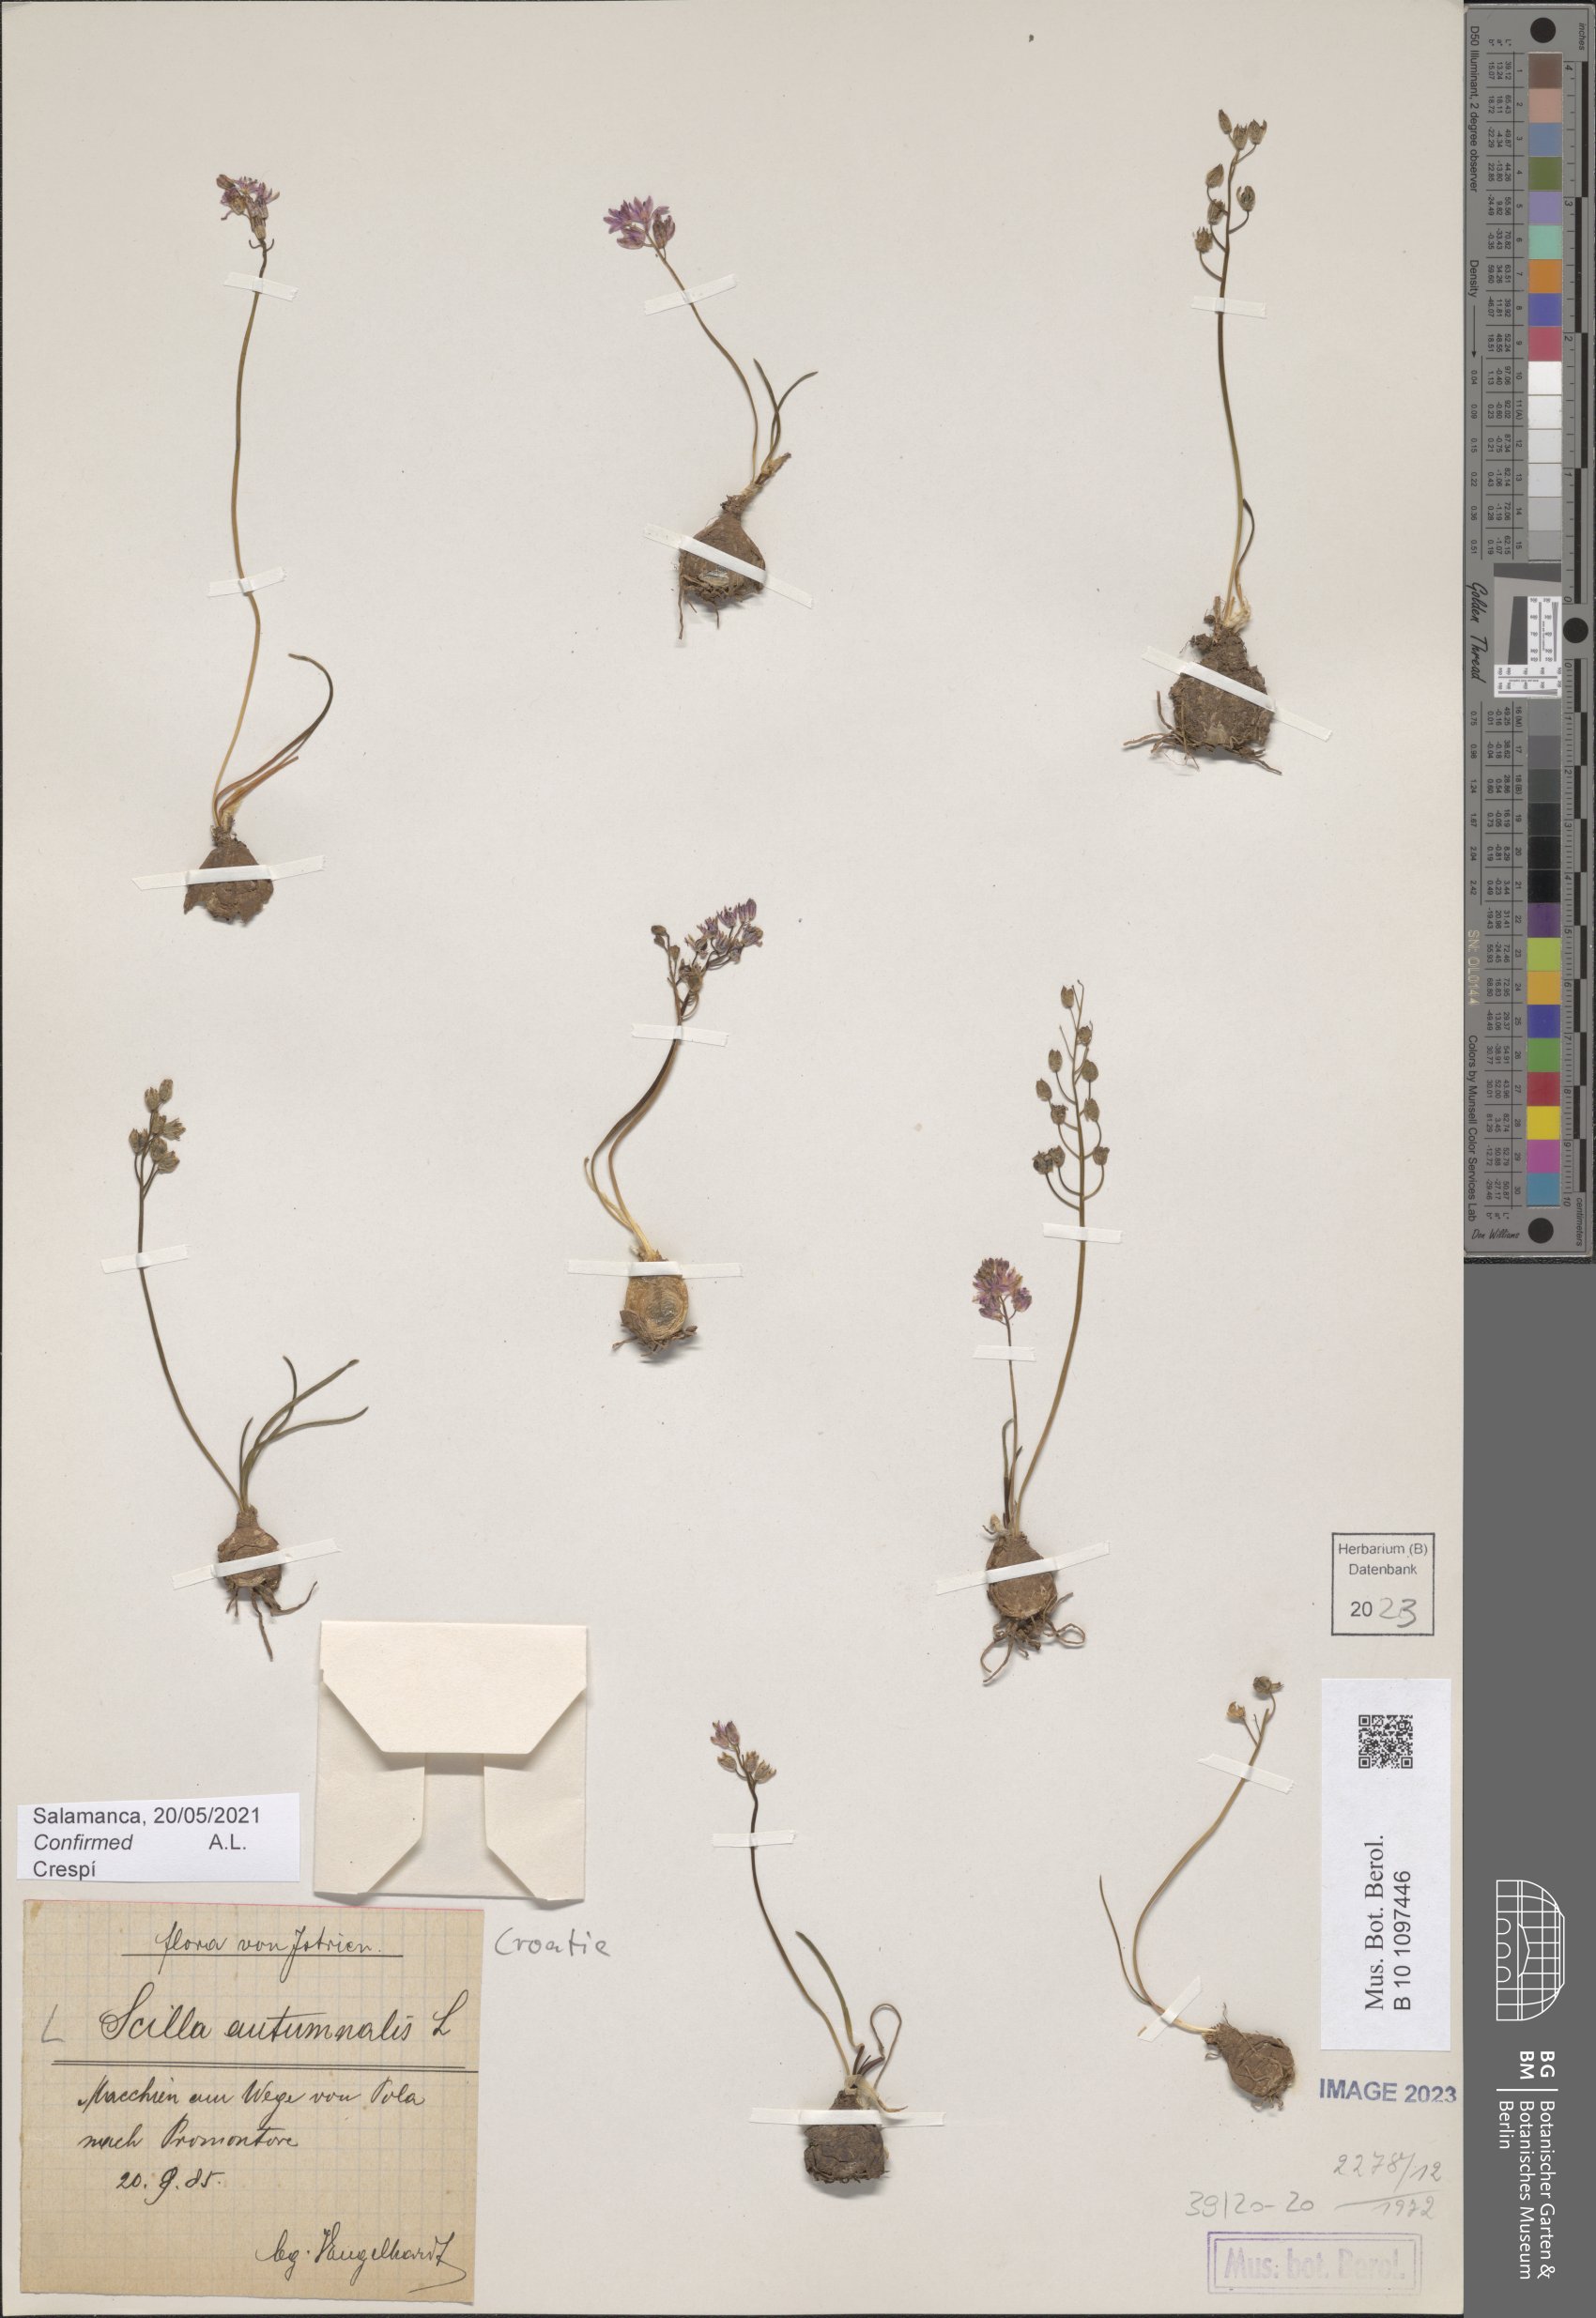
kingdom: Plantae
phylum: Tracheophyta
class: Liliopsida
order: Asparagales
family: Asparagaceae
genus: Prospero
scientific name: Prospero autumnale
